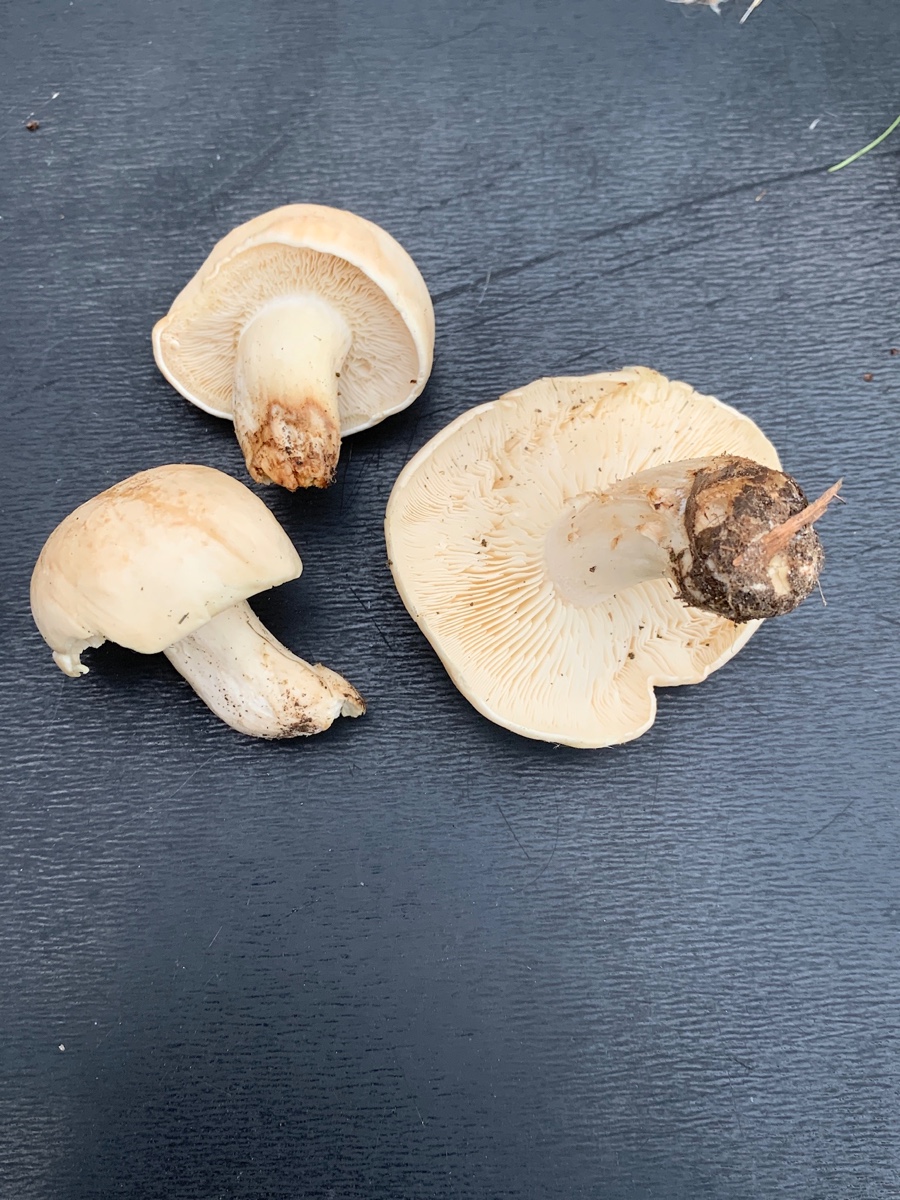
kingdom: Fungi
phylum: Basidiomycota
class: Agaricomycetes
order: Agaricales
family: Lyophyllaceae
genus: Calocybe
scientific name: Calocybe gambosa
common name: vårmusseron
